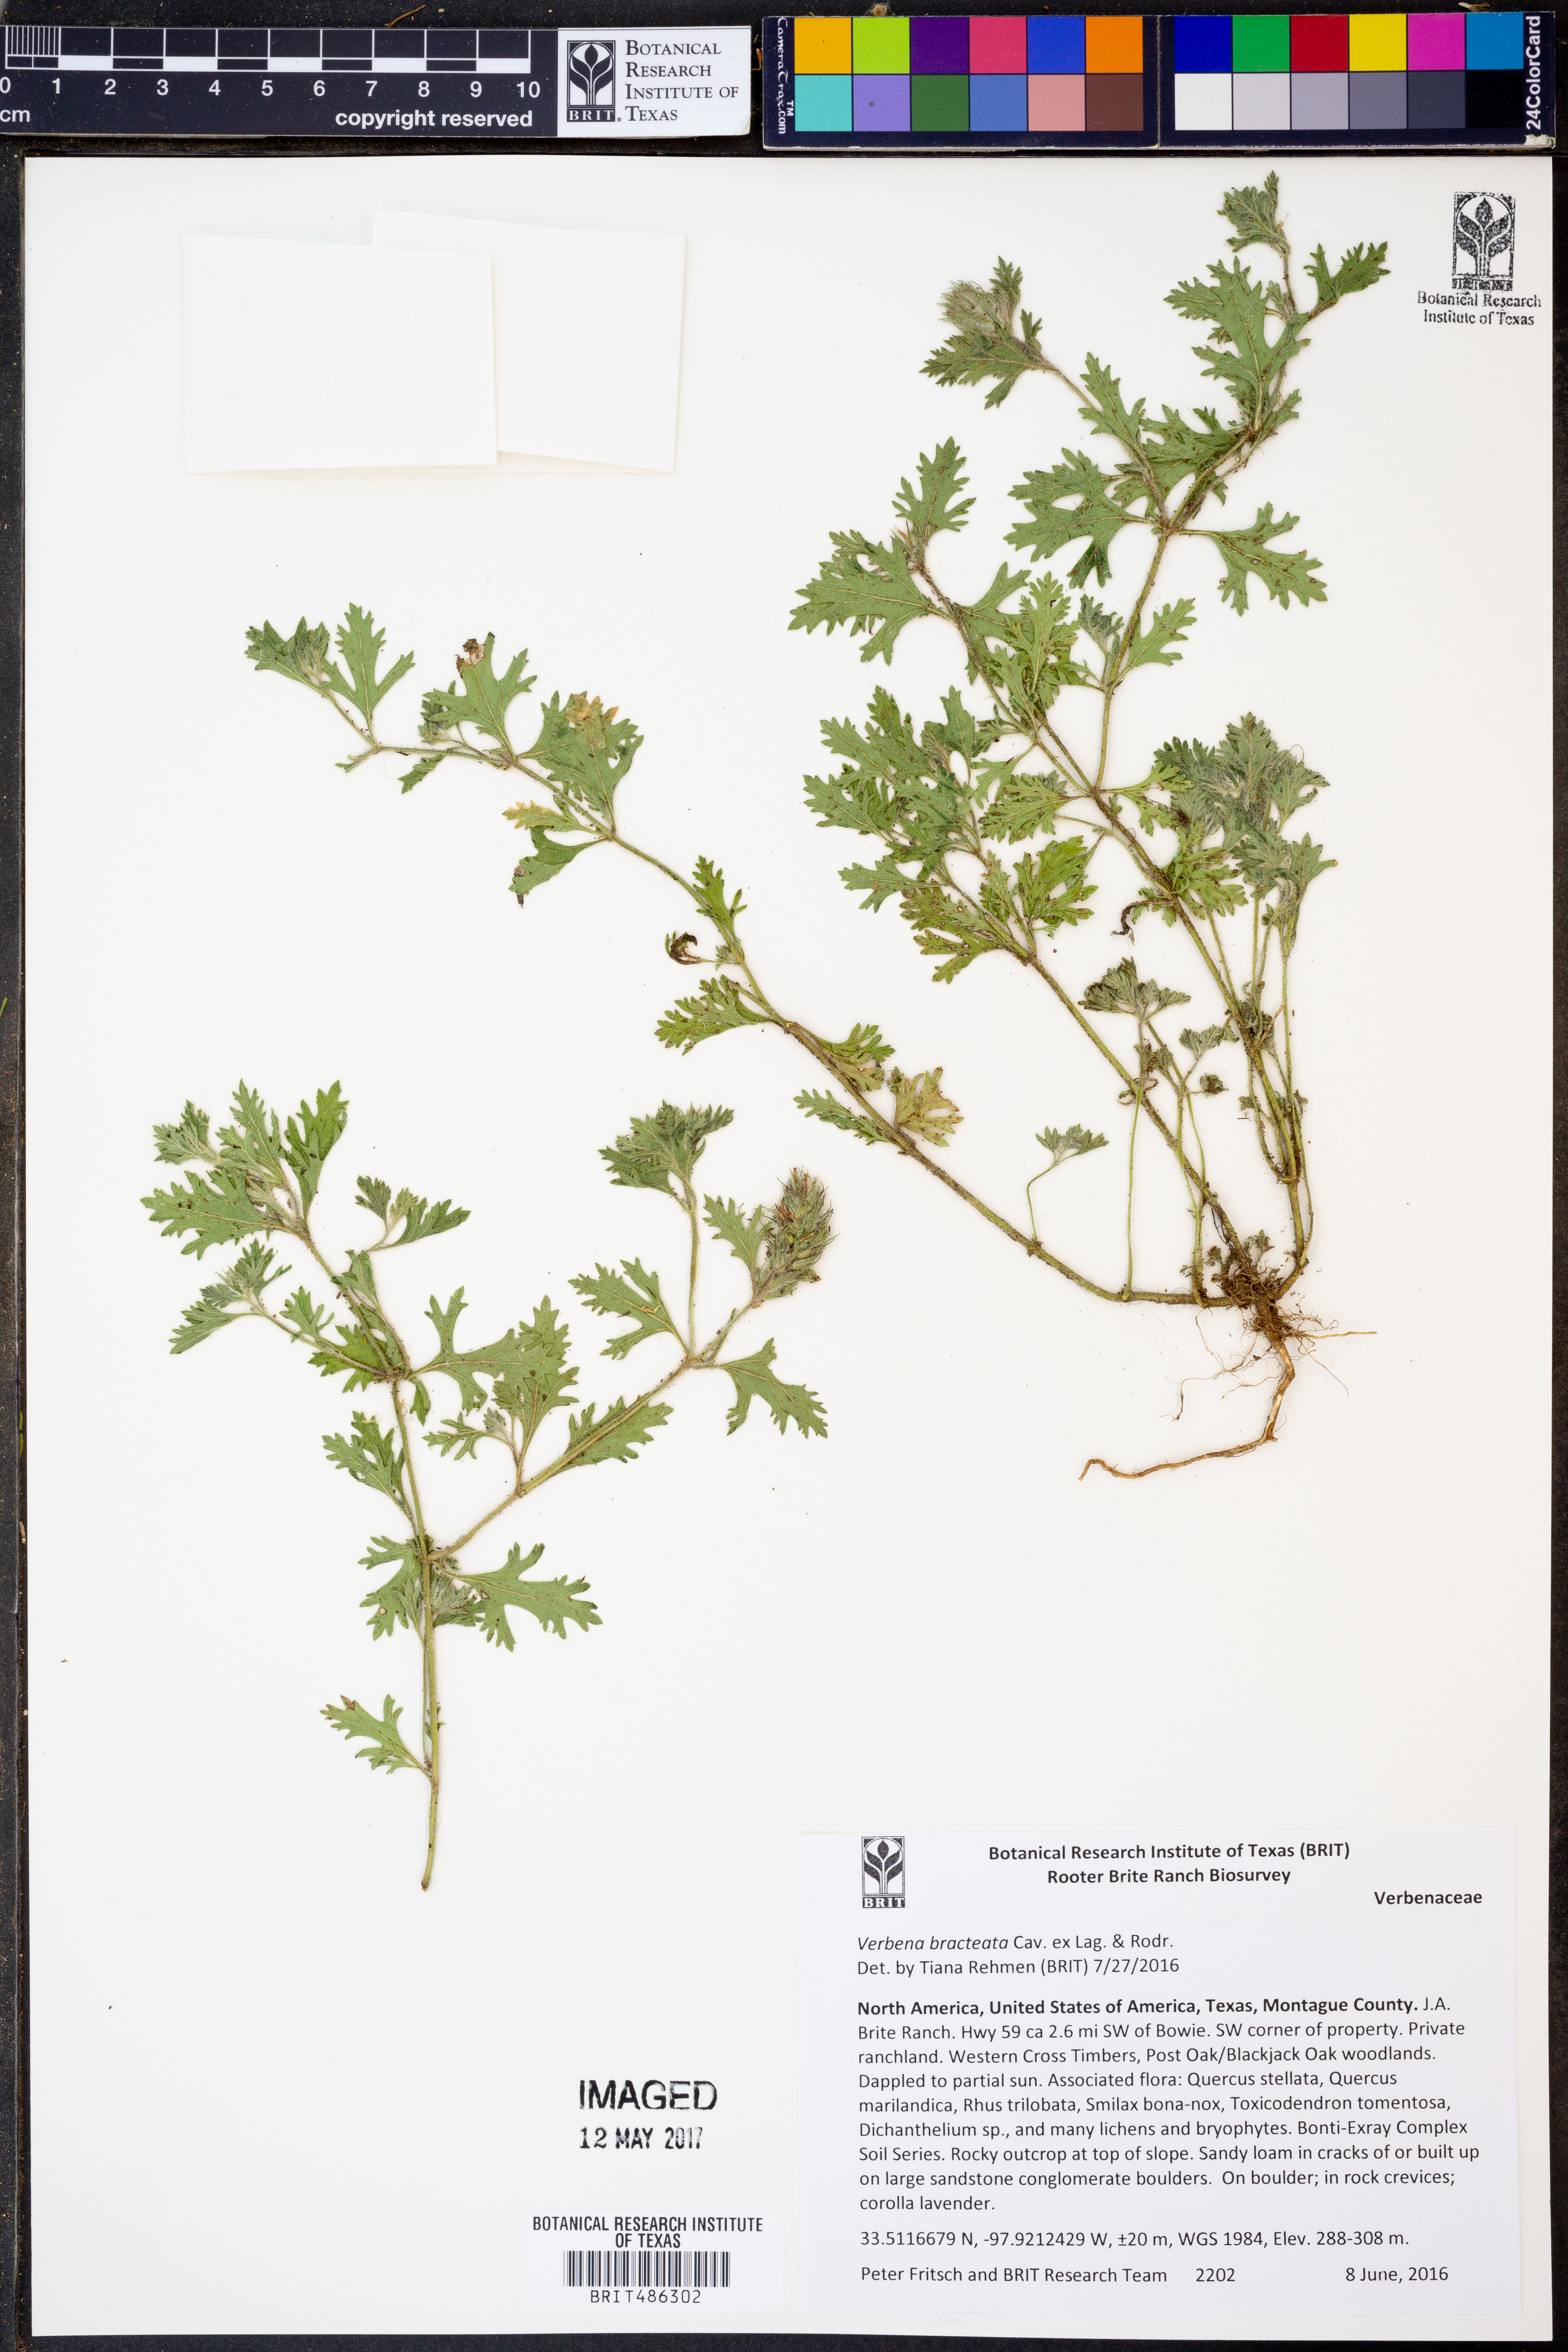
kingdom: Plantae
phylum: Tracheophyta
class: Magnoliopsida
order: Lamiales
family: Verbenaceae
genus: Verbena
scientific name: Verbena bracteata
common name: Bracted vervain
